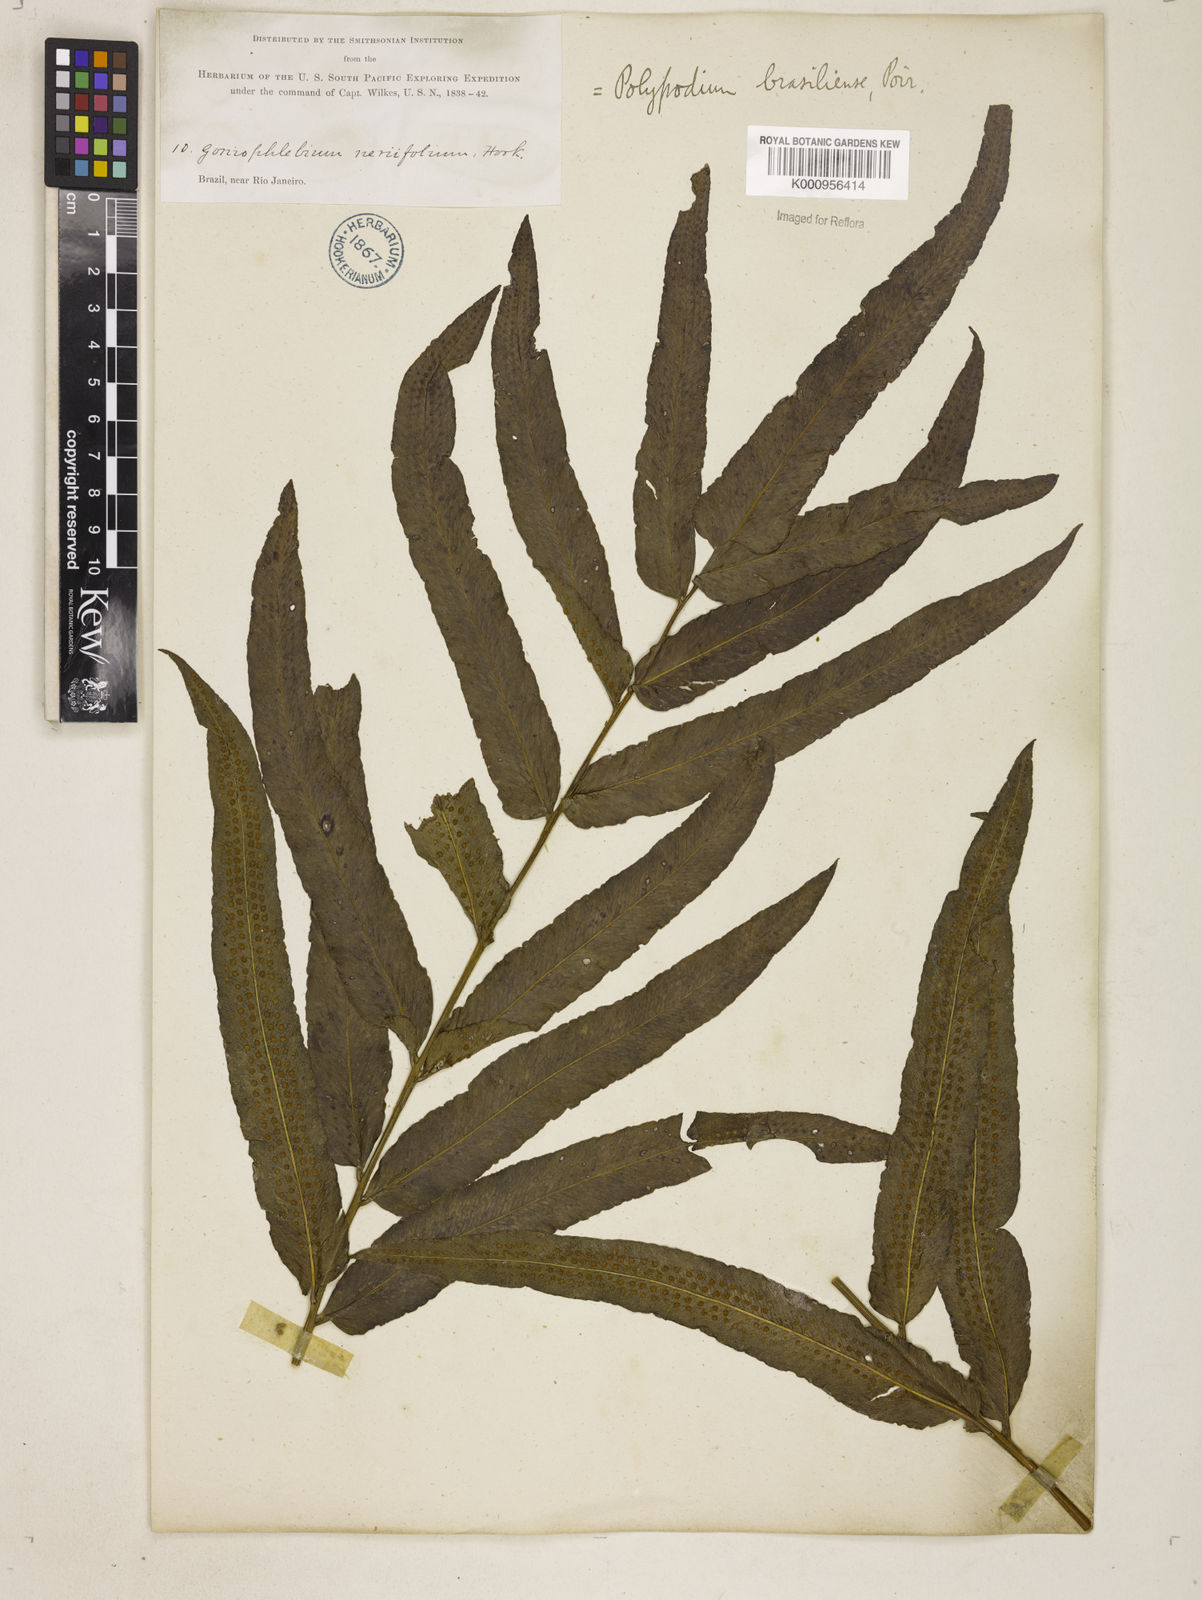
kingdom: Plantae
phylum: Tracheophyta
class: Polypodiopsida
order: Polypodiales
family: Polypodiaceae
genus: Serpocaulon
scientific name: Serpocaulon triseriale
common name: Angle-vein fern
